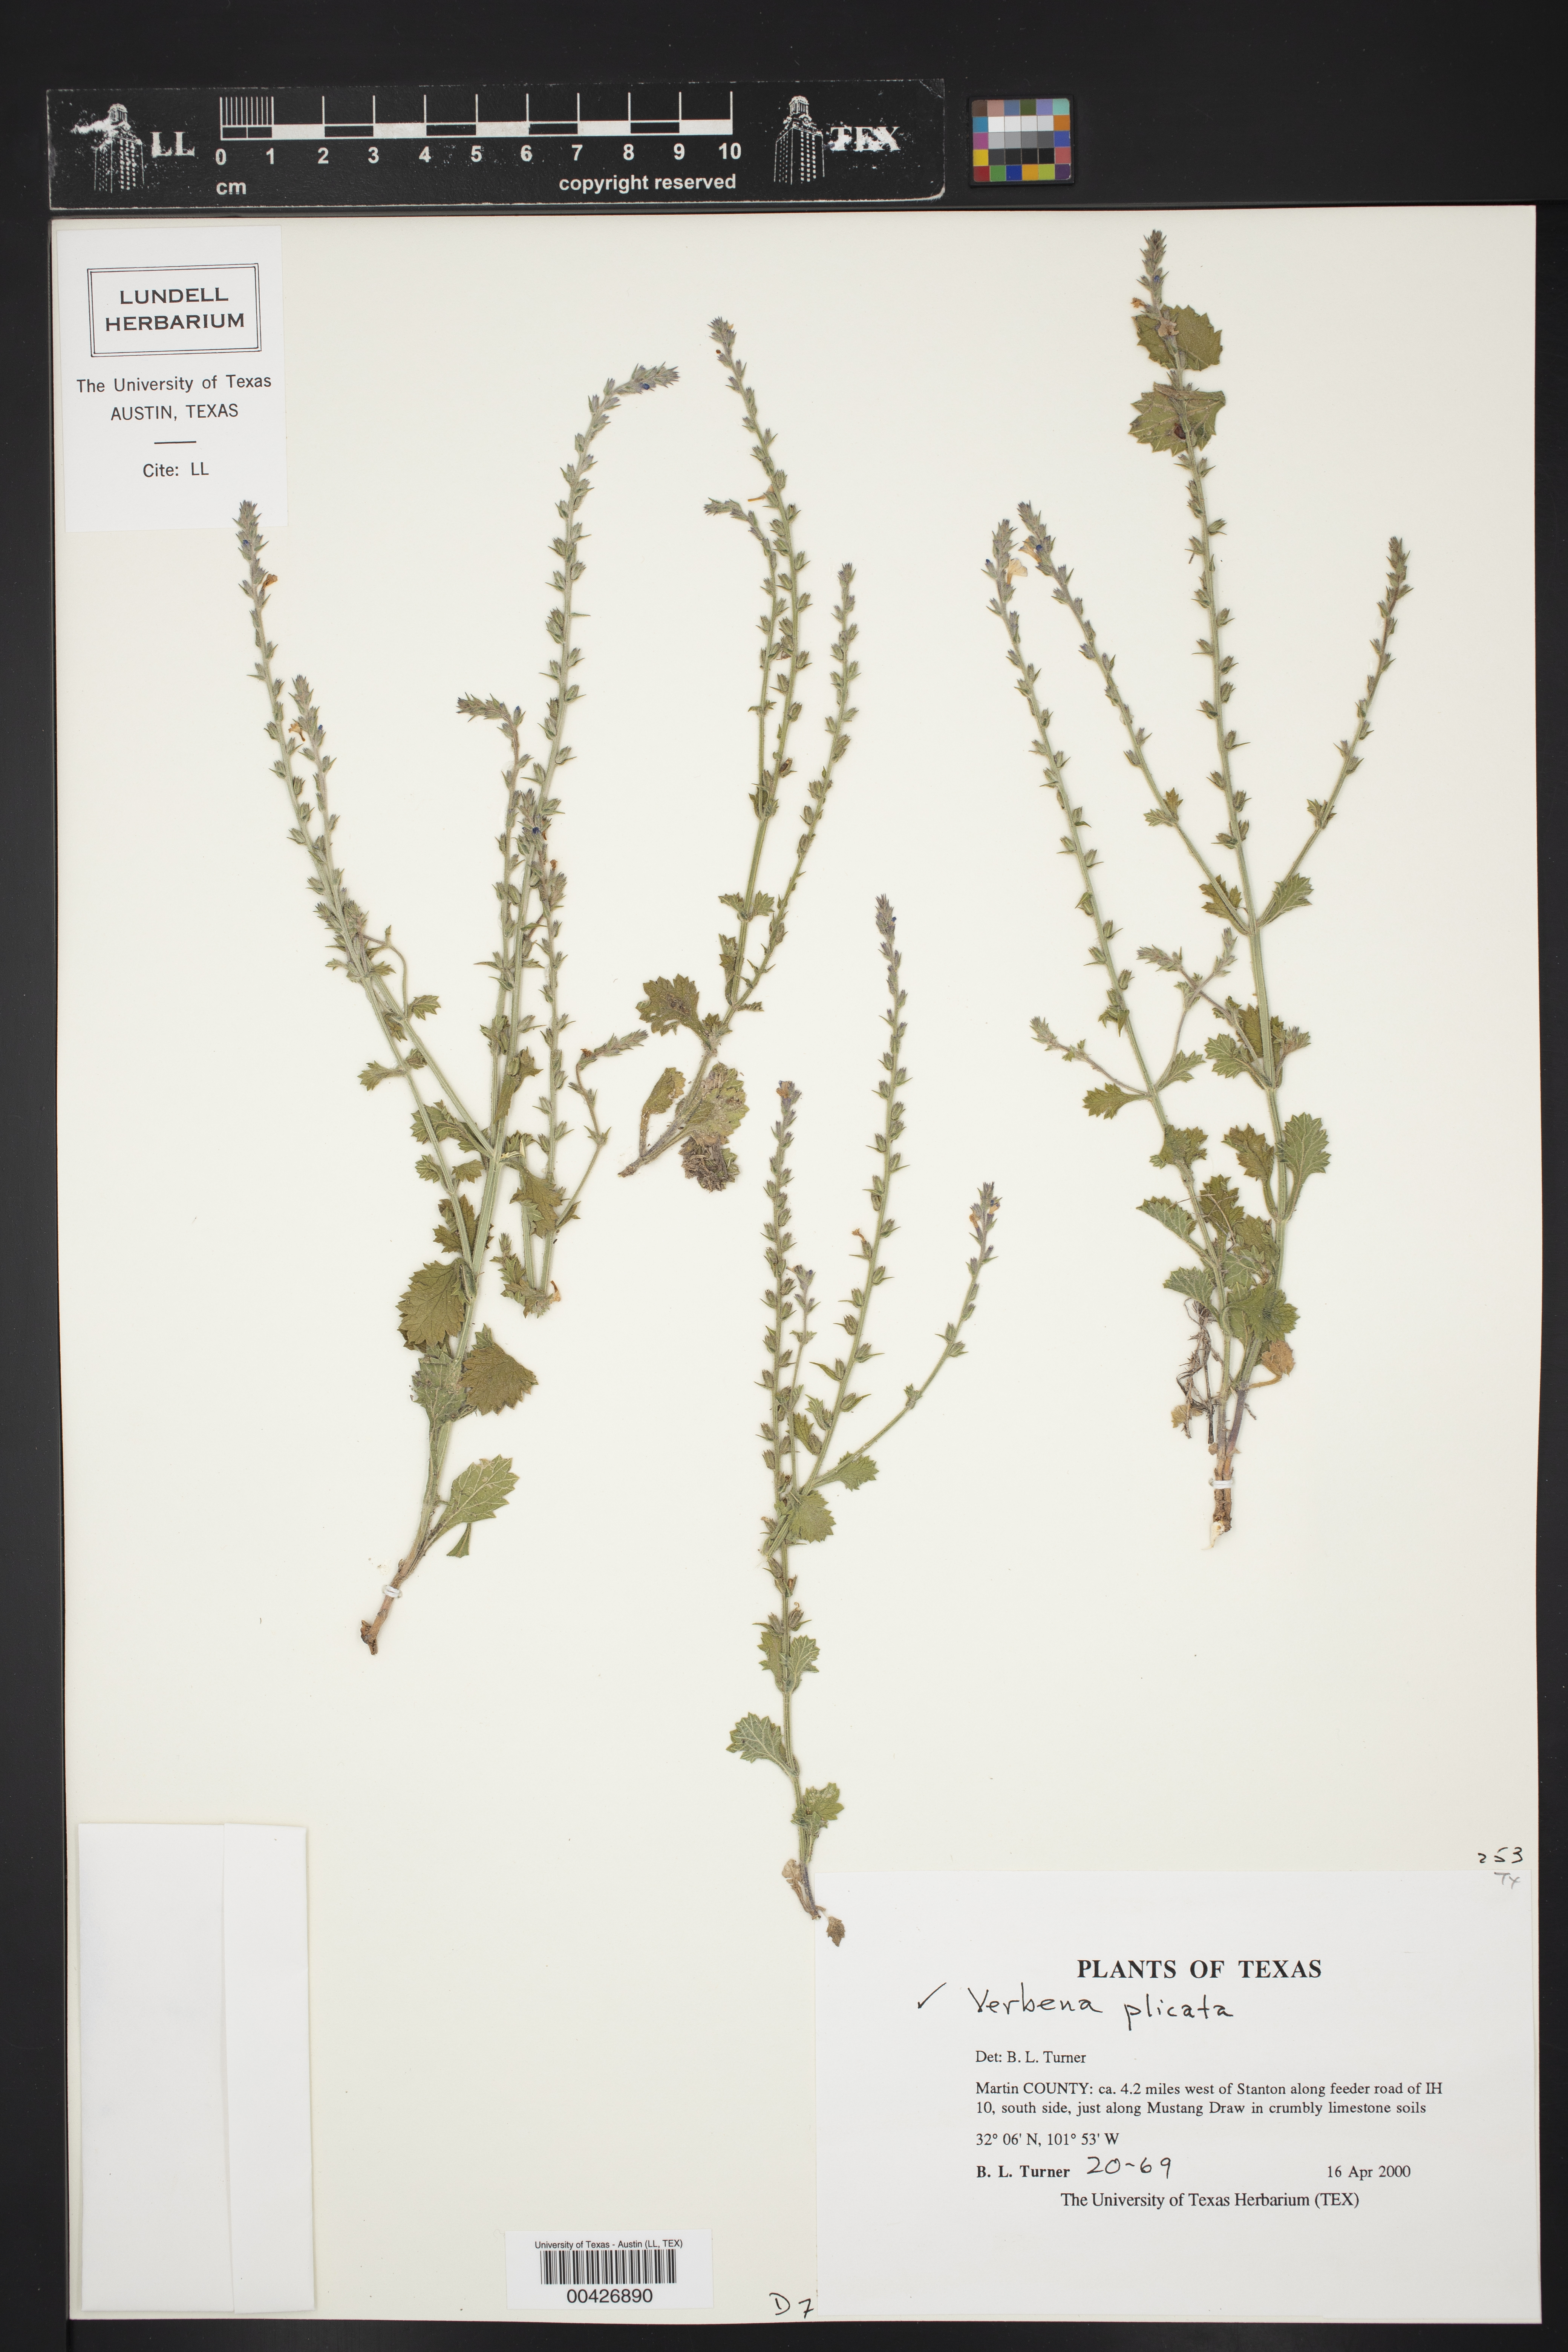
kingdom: Plantae
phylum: Tracheophyta
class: Magnoliopsida
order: Lamiales
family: Verbenaceae
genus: Verbena
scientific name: Verbena plicata
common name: Fan-leaf vervain
